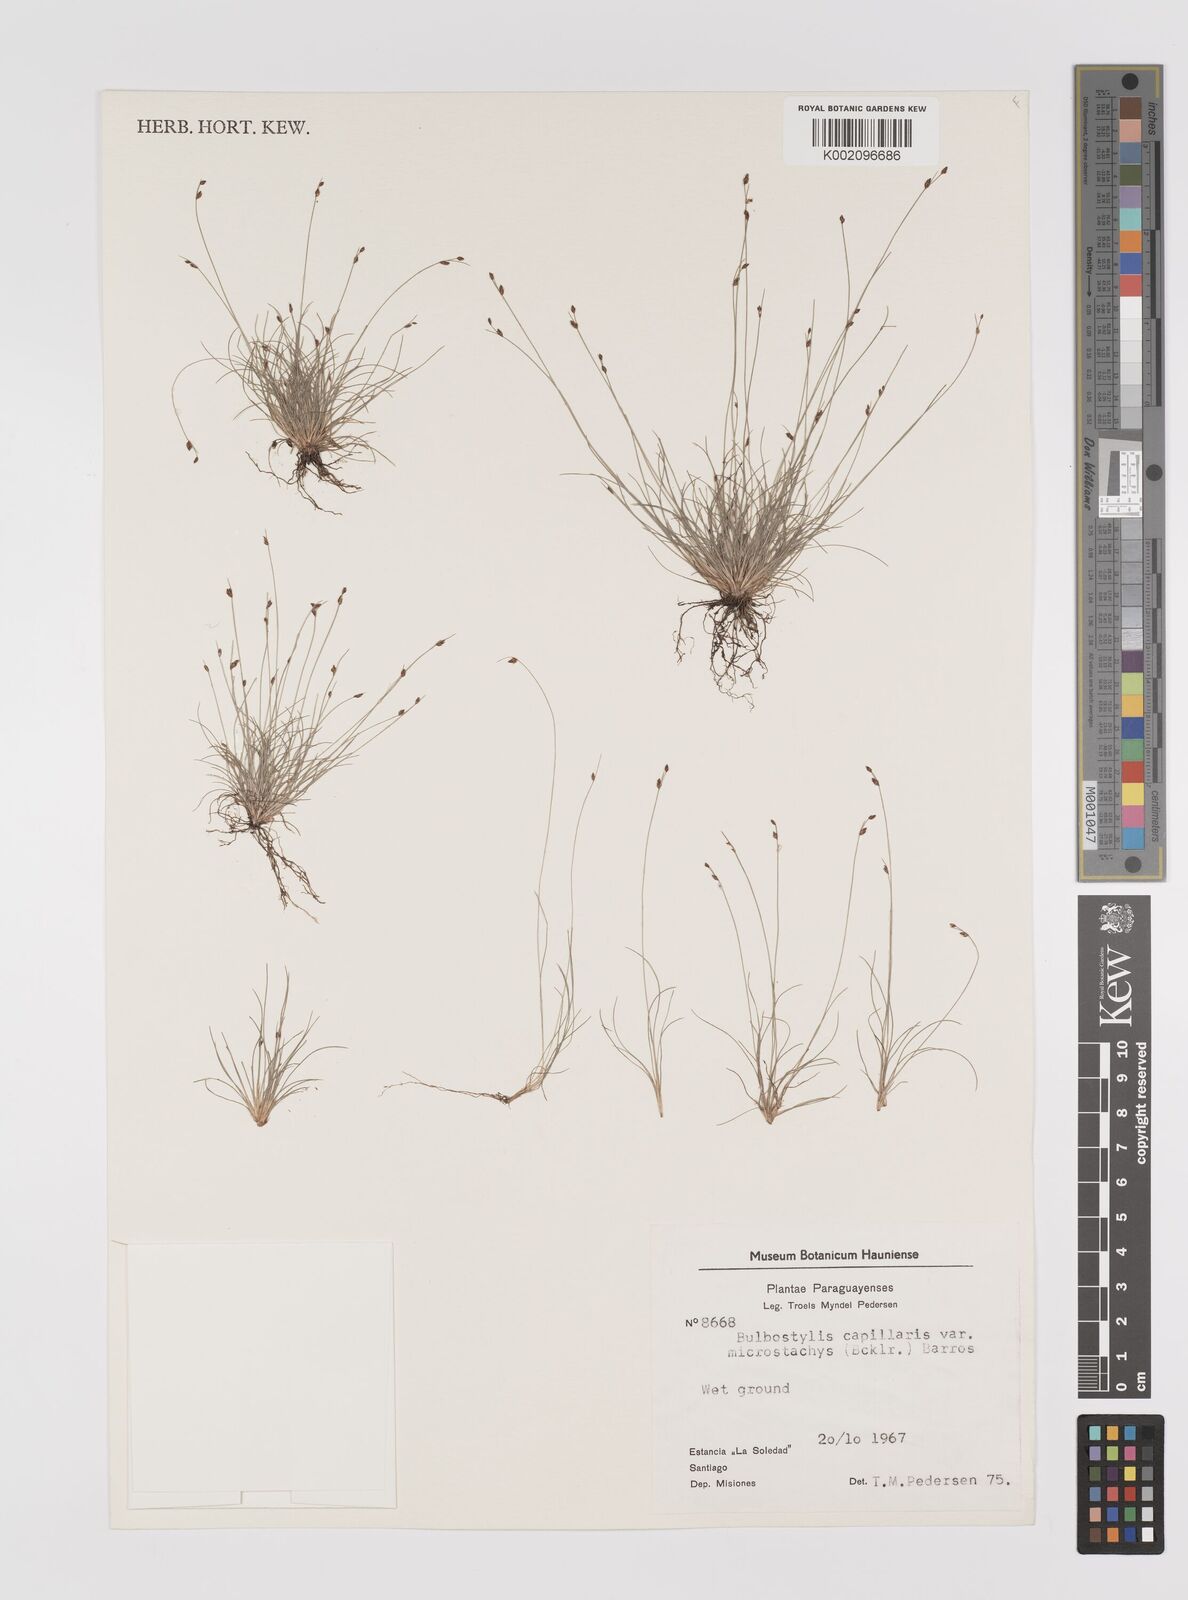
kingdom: Plantae
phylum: Tracheophyta
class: Liliopsida
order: Poales
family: Cyperaceae
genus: Bulbostylis
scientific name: Bulbostylis capillaris
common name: Densetuft hairsedge
